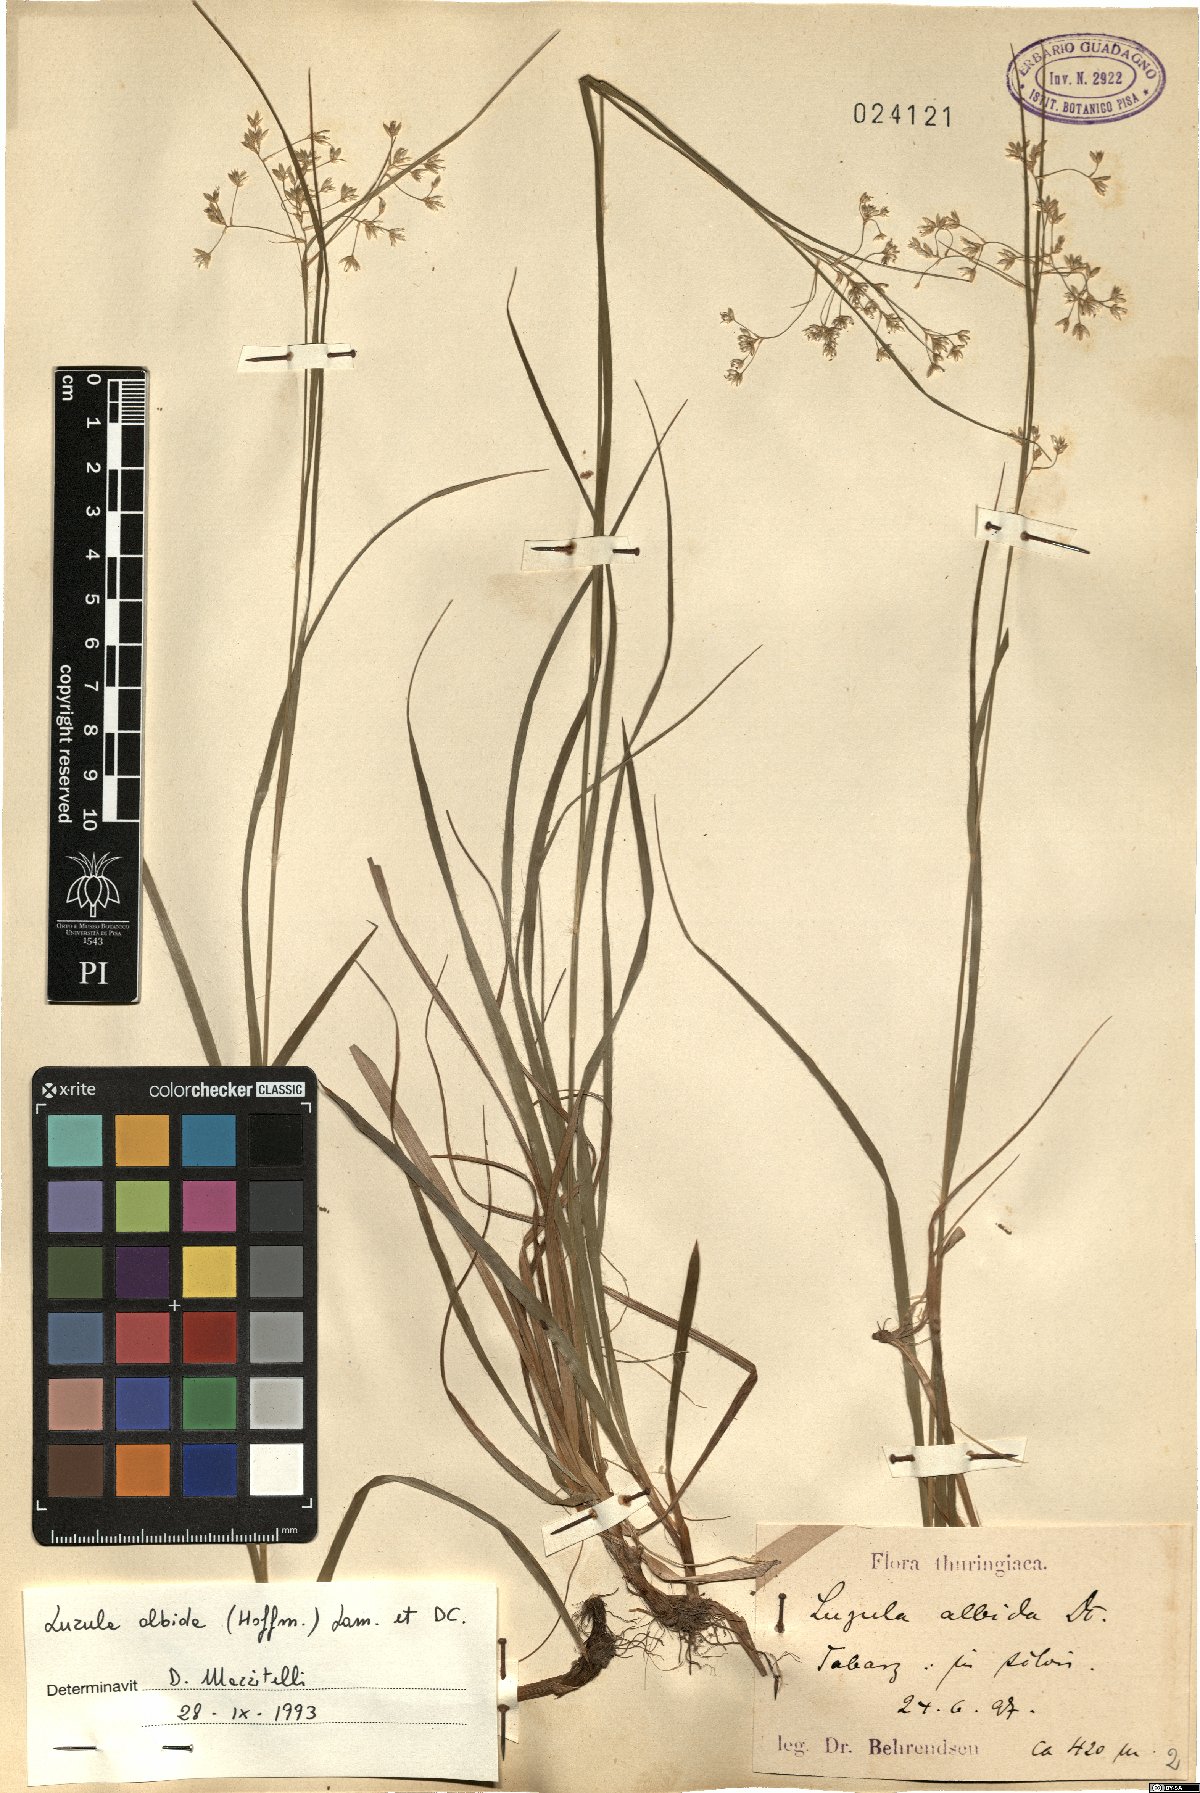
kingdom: Plantae
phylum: Tracheophyta
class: Liliopsida
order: Poales
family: Juncaceae
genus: Luzula
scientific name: Luzula luzuloides
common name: White wood-rush
